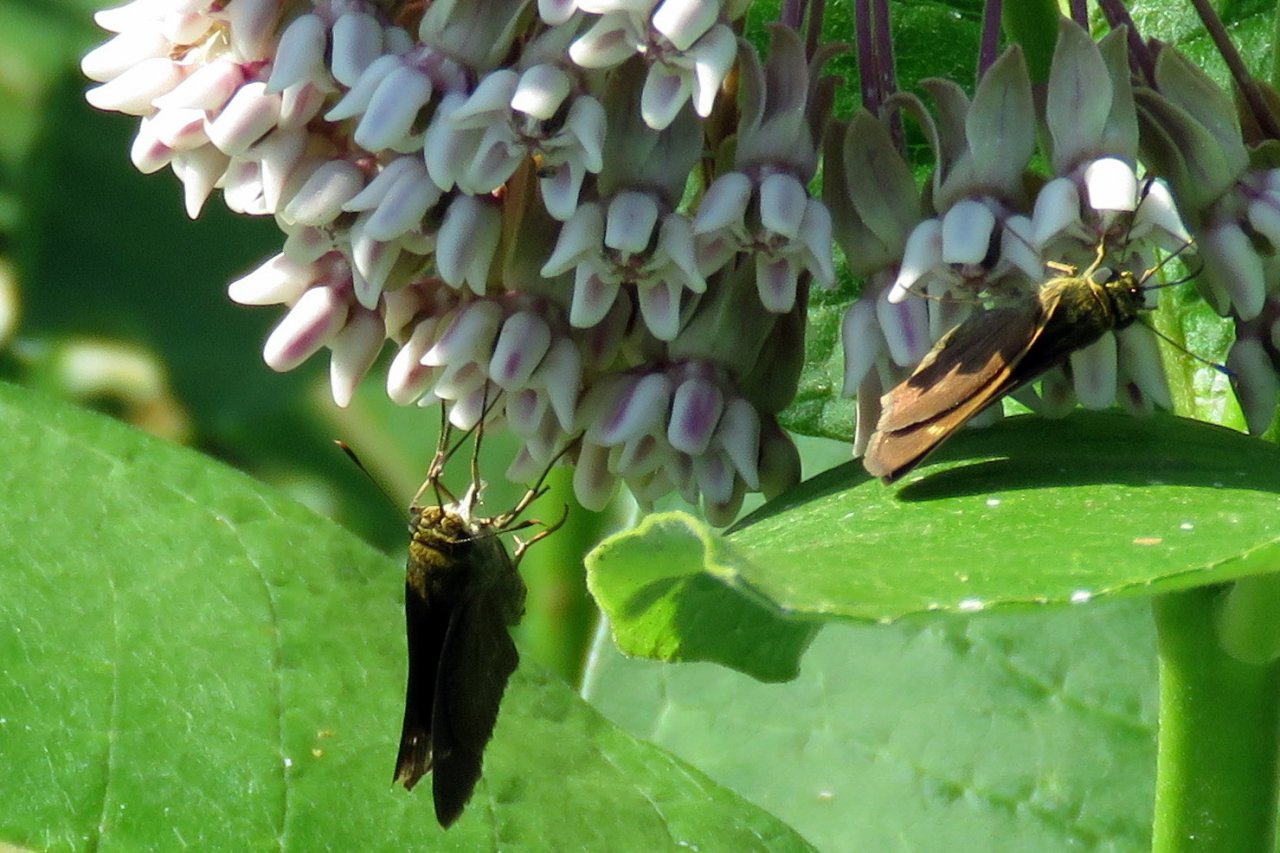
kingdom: Animalia
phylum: Arthropoda
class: Insecta
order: Lepidoptera
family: Hesperiidae
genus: Vernia
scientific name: Vernia verna
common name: Little Glassywing
